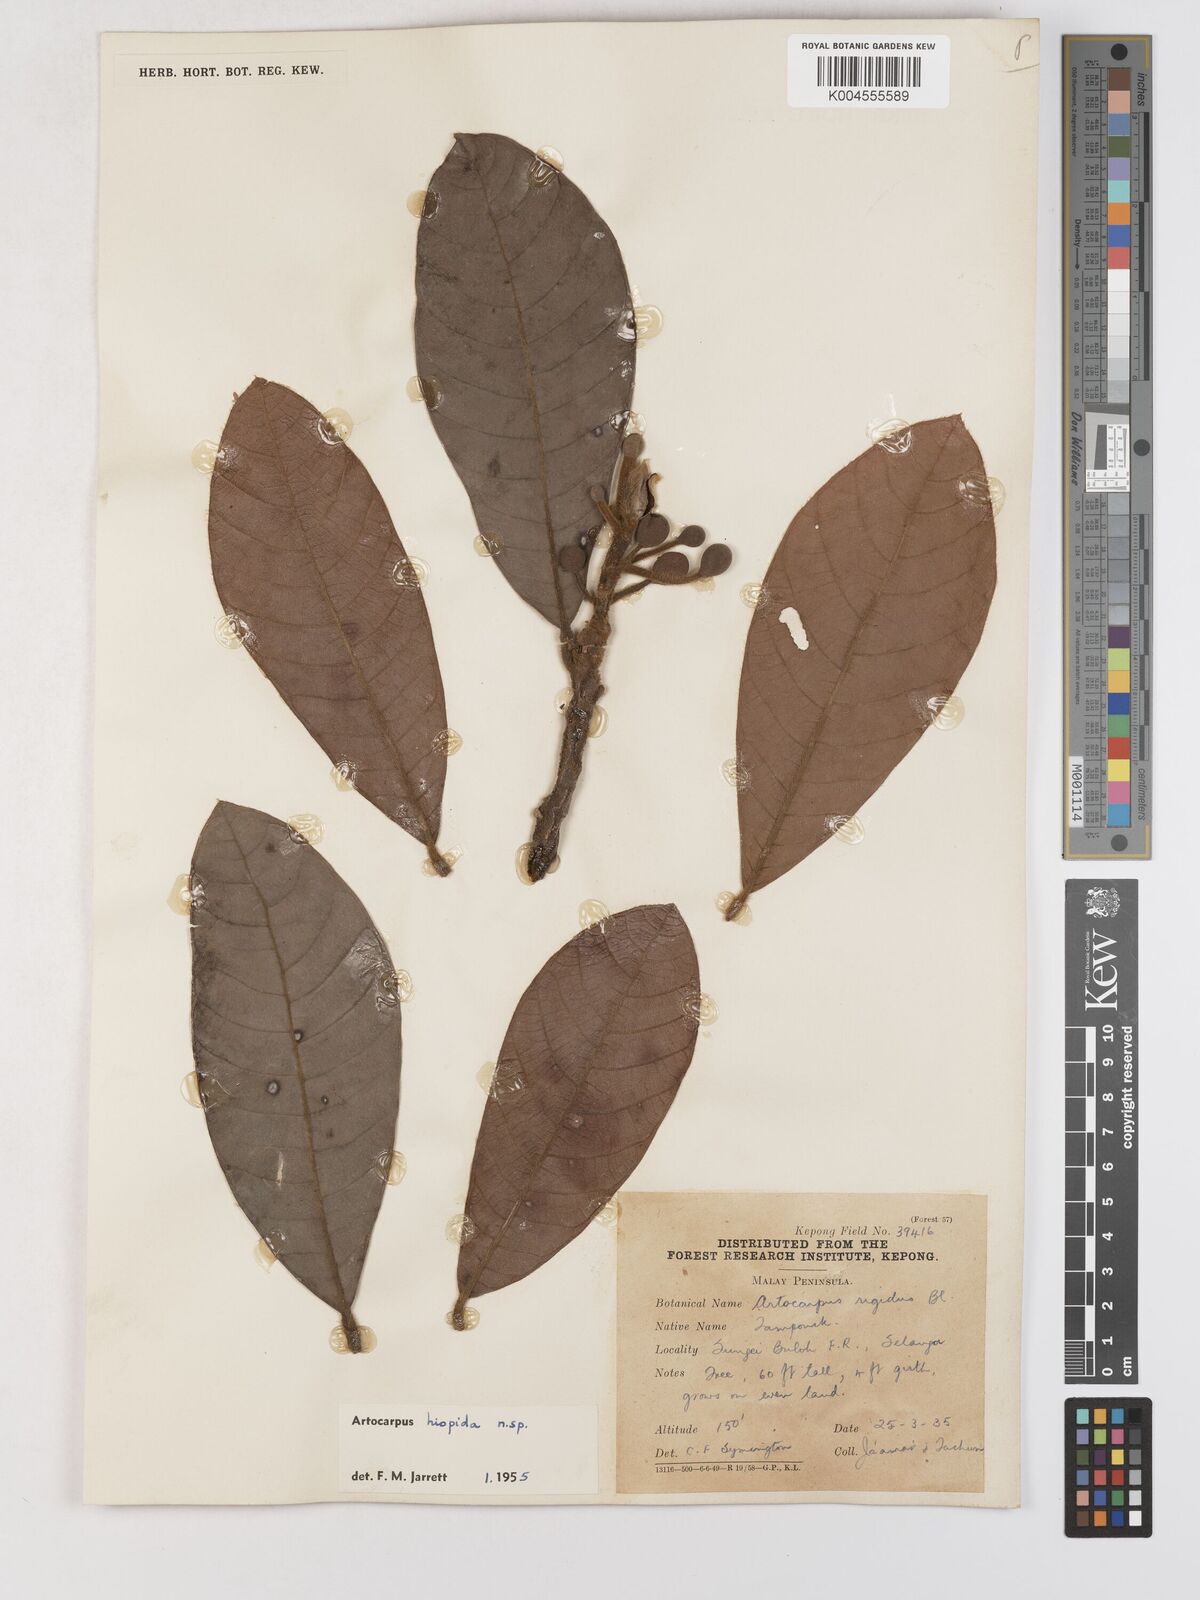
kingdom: Plantae
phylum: Tracheophyta
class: Magnoliopsida
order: Rosales
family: Moraceae
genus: Artocarpus
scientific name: Artocarpus hispidus
